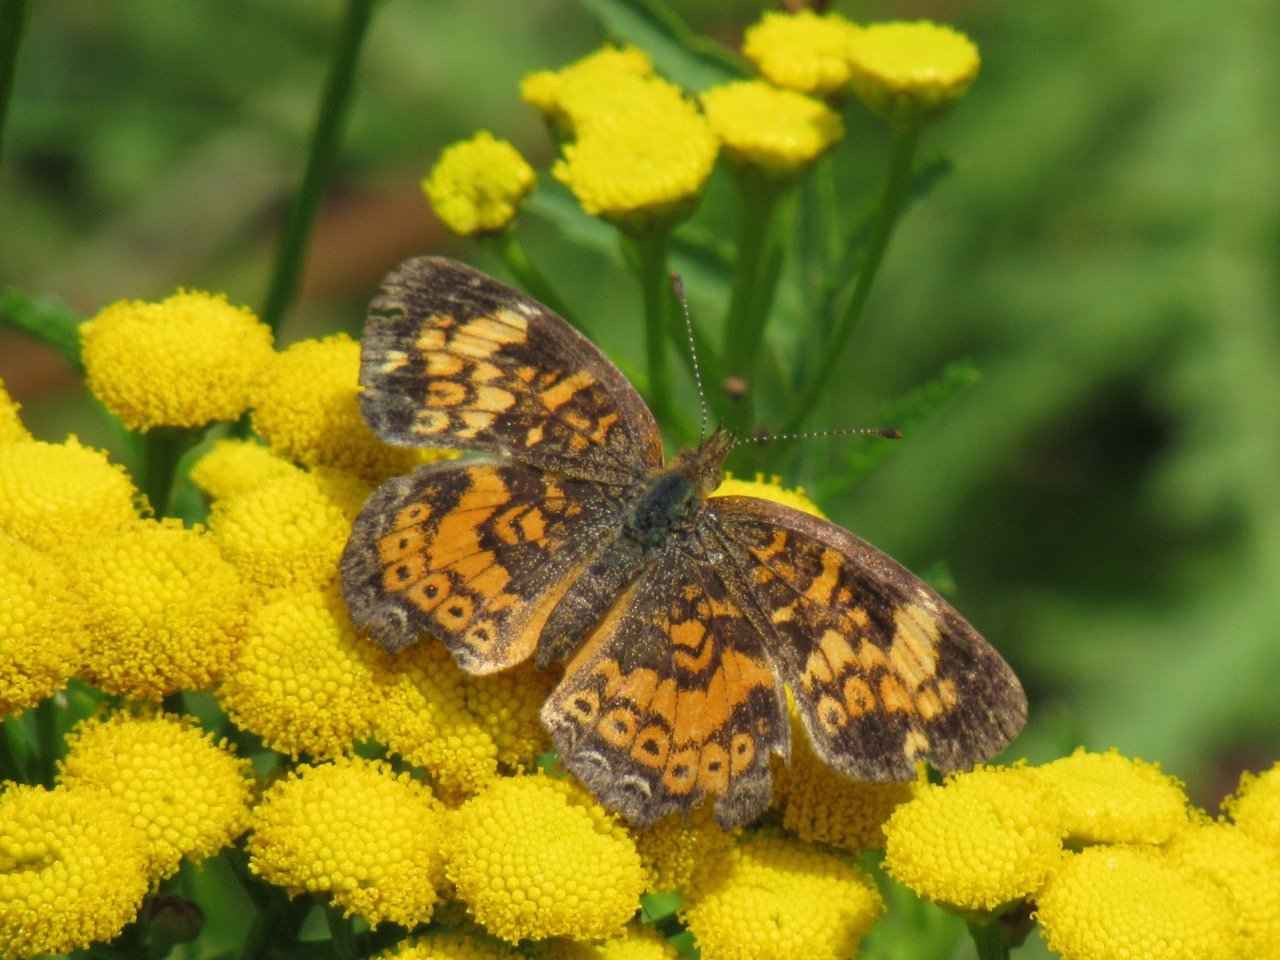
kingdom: Animalia
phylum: Arthropoda
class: Insecta
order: Lepidoptera
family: Nymphalidae
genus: Phyciodes
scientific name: Phyciodes tharos
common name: Pearl Crescent
